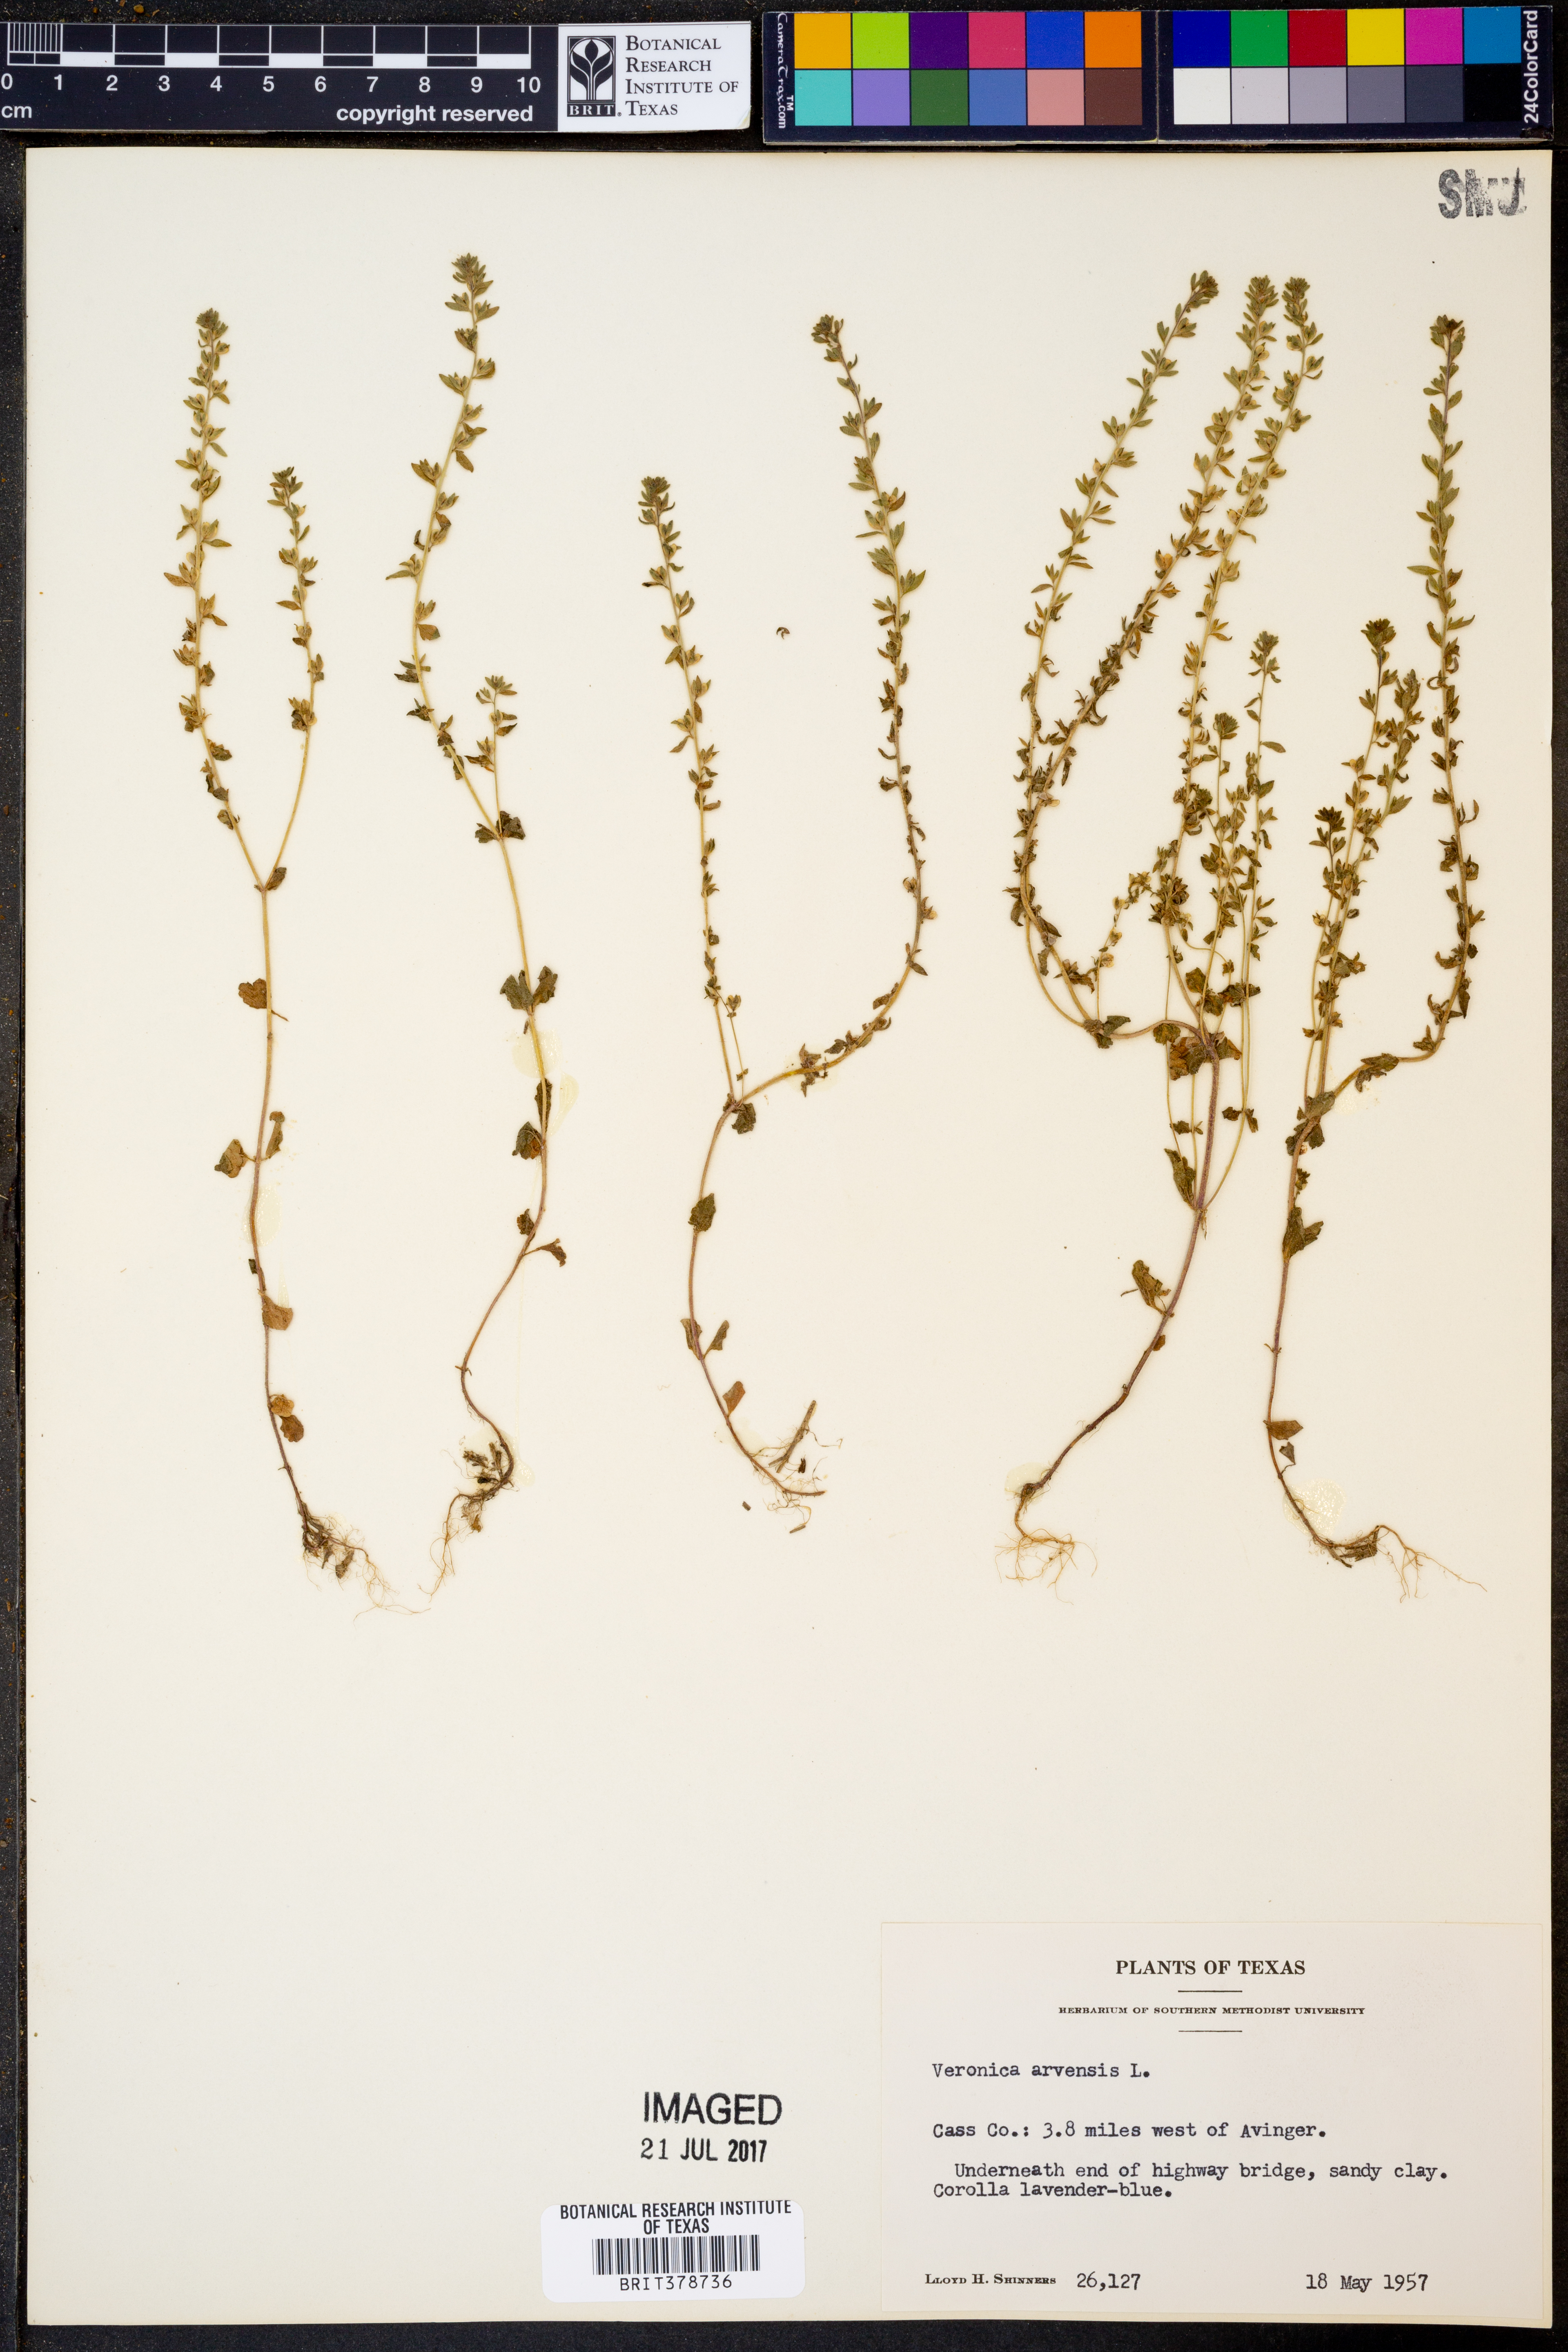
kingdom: Plantae
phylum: Tracheophyta
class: Magnoliopsida
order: Lamiales
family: Plantaginaceae
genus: Veronica
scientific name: Veronica arvensis
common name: Corn speedwell
